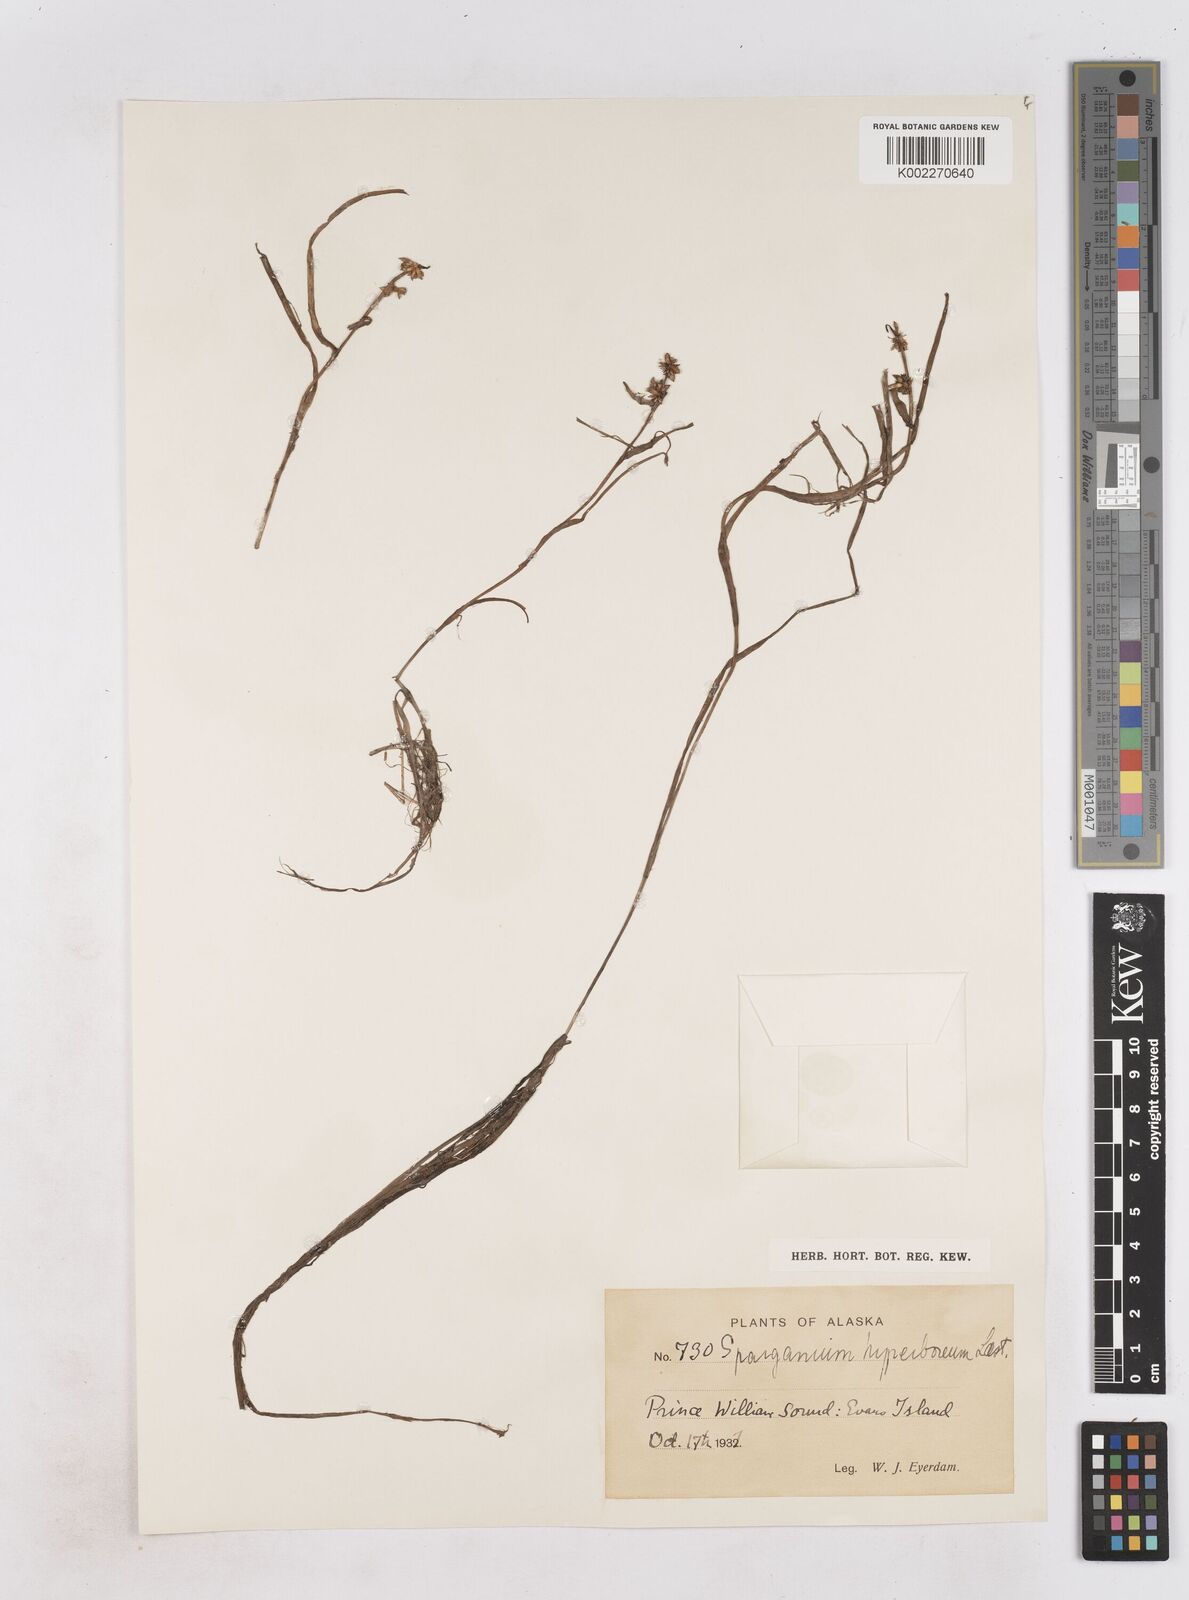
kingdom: Plantae
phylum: Tracheophyta
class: Liliopsida
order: Poales
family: Typhaceae
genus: Sparganium
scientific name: Sparganium hyperboreum
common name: Arctic burreed
